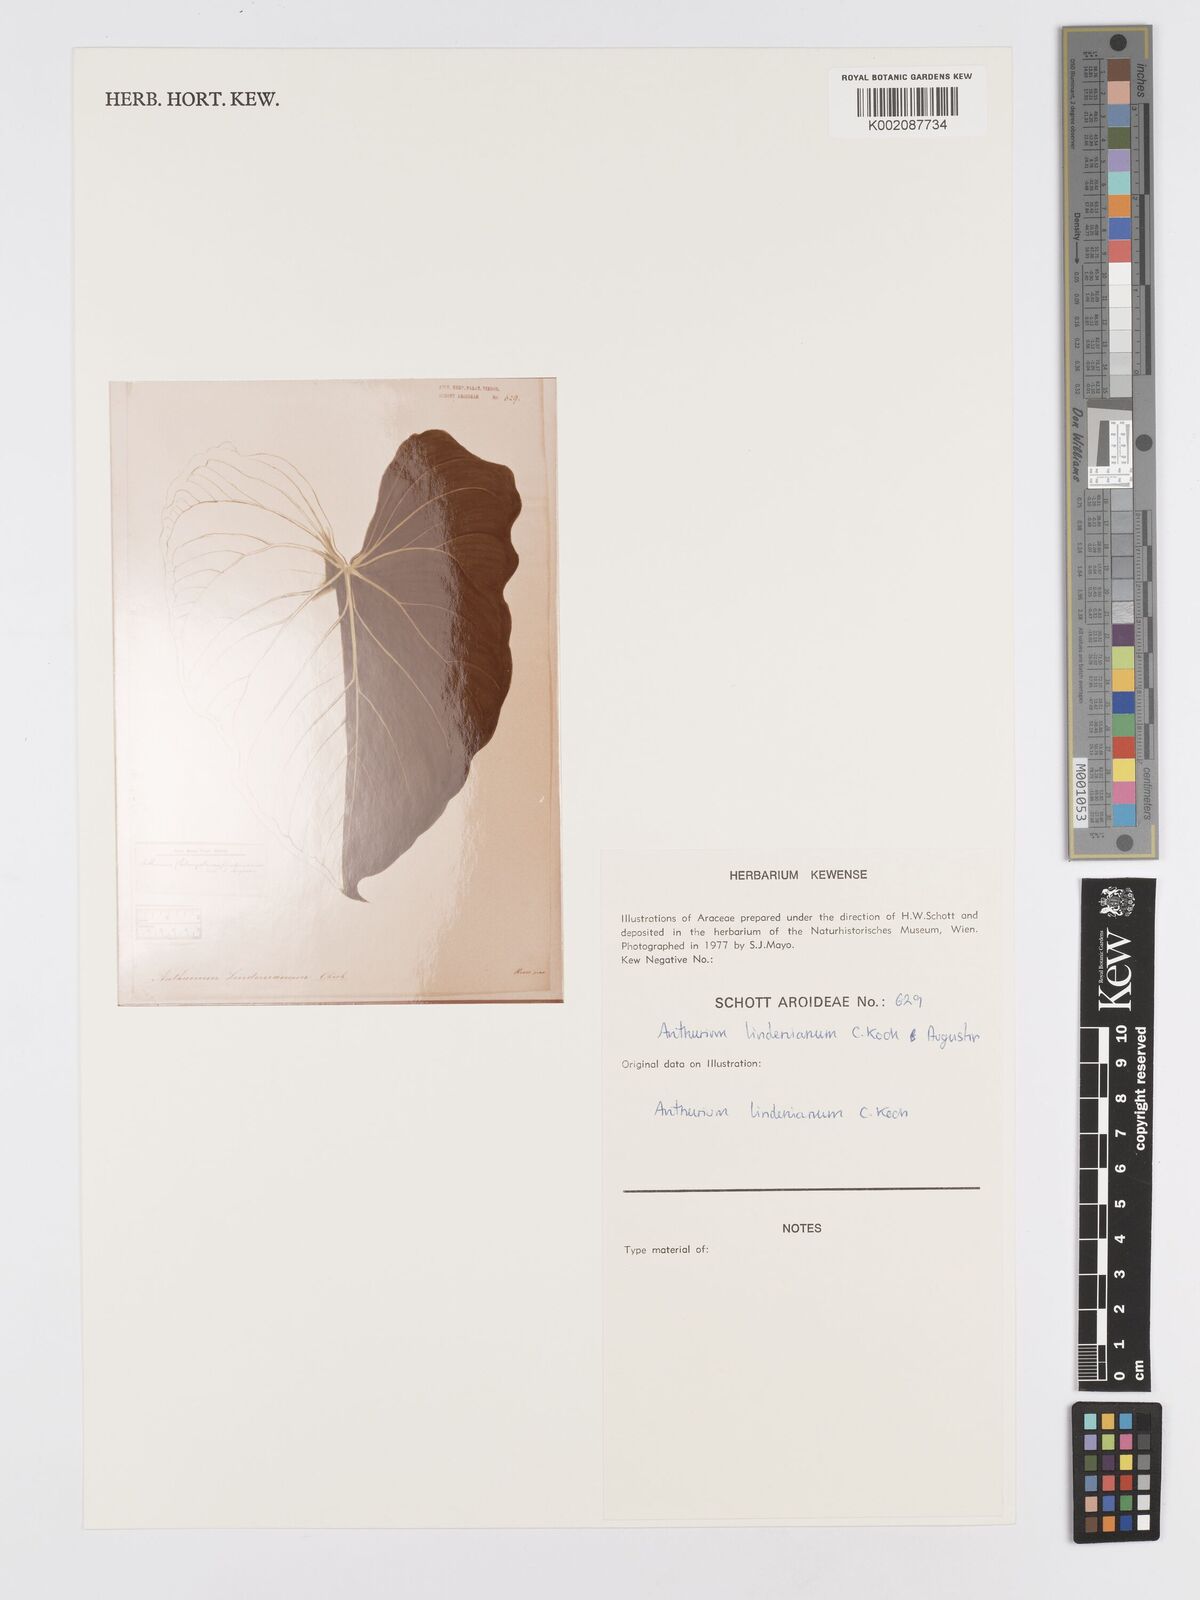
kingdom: Plantae
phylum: Tracheophyta
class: Liliopsida
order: Alismatales
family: Araceae
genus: Anthurium
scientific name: Anthurium lindenianum
